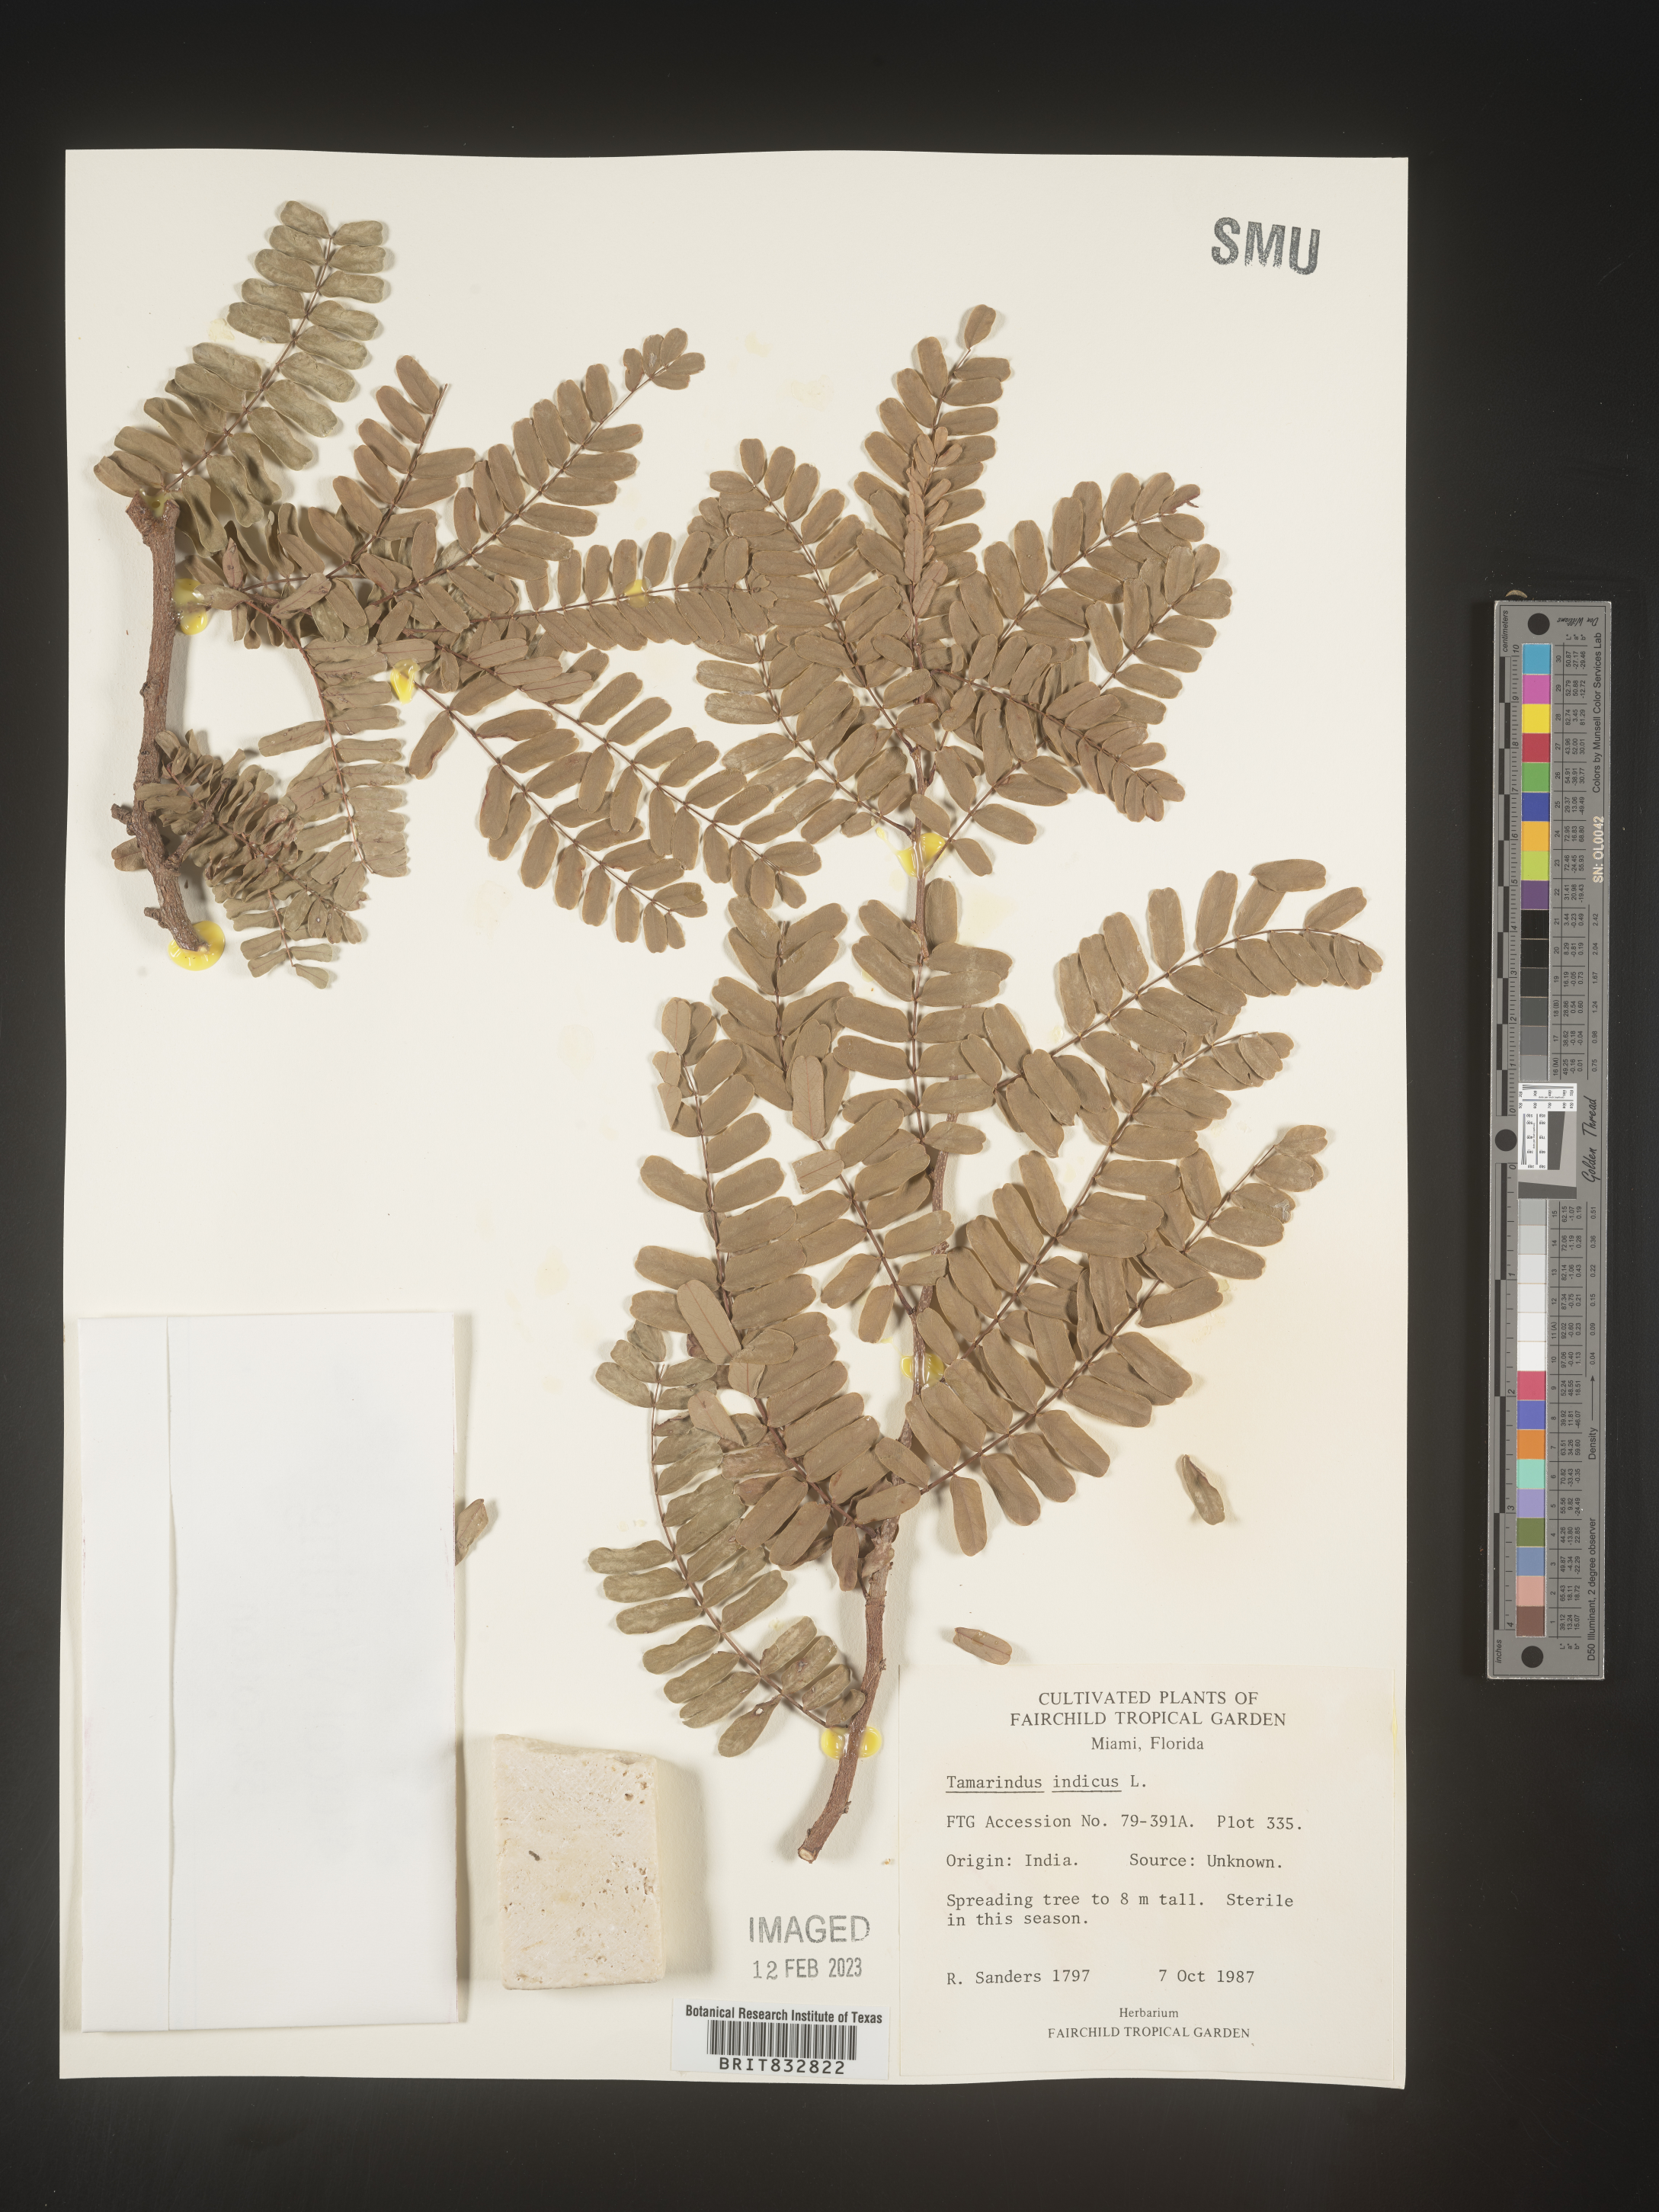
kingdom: Plantae
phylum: Tracheophyta
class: Magnoliopsida
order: Fabales
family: Fabaceae
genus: Tamarindus
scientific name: Tamarindus indica
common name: Tamarind
